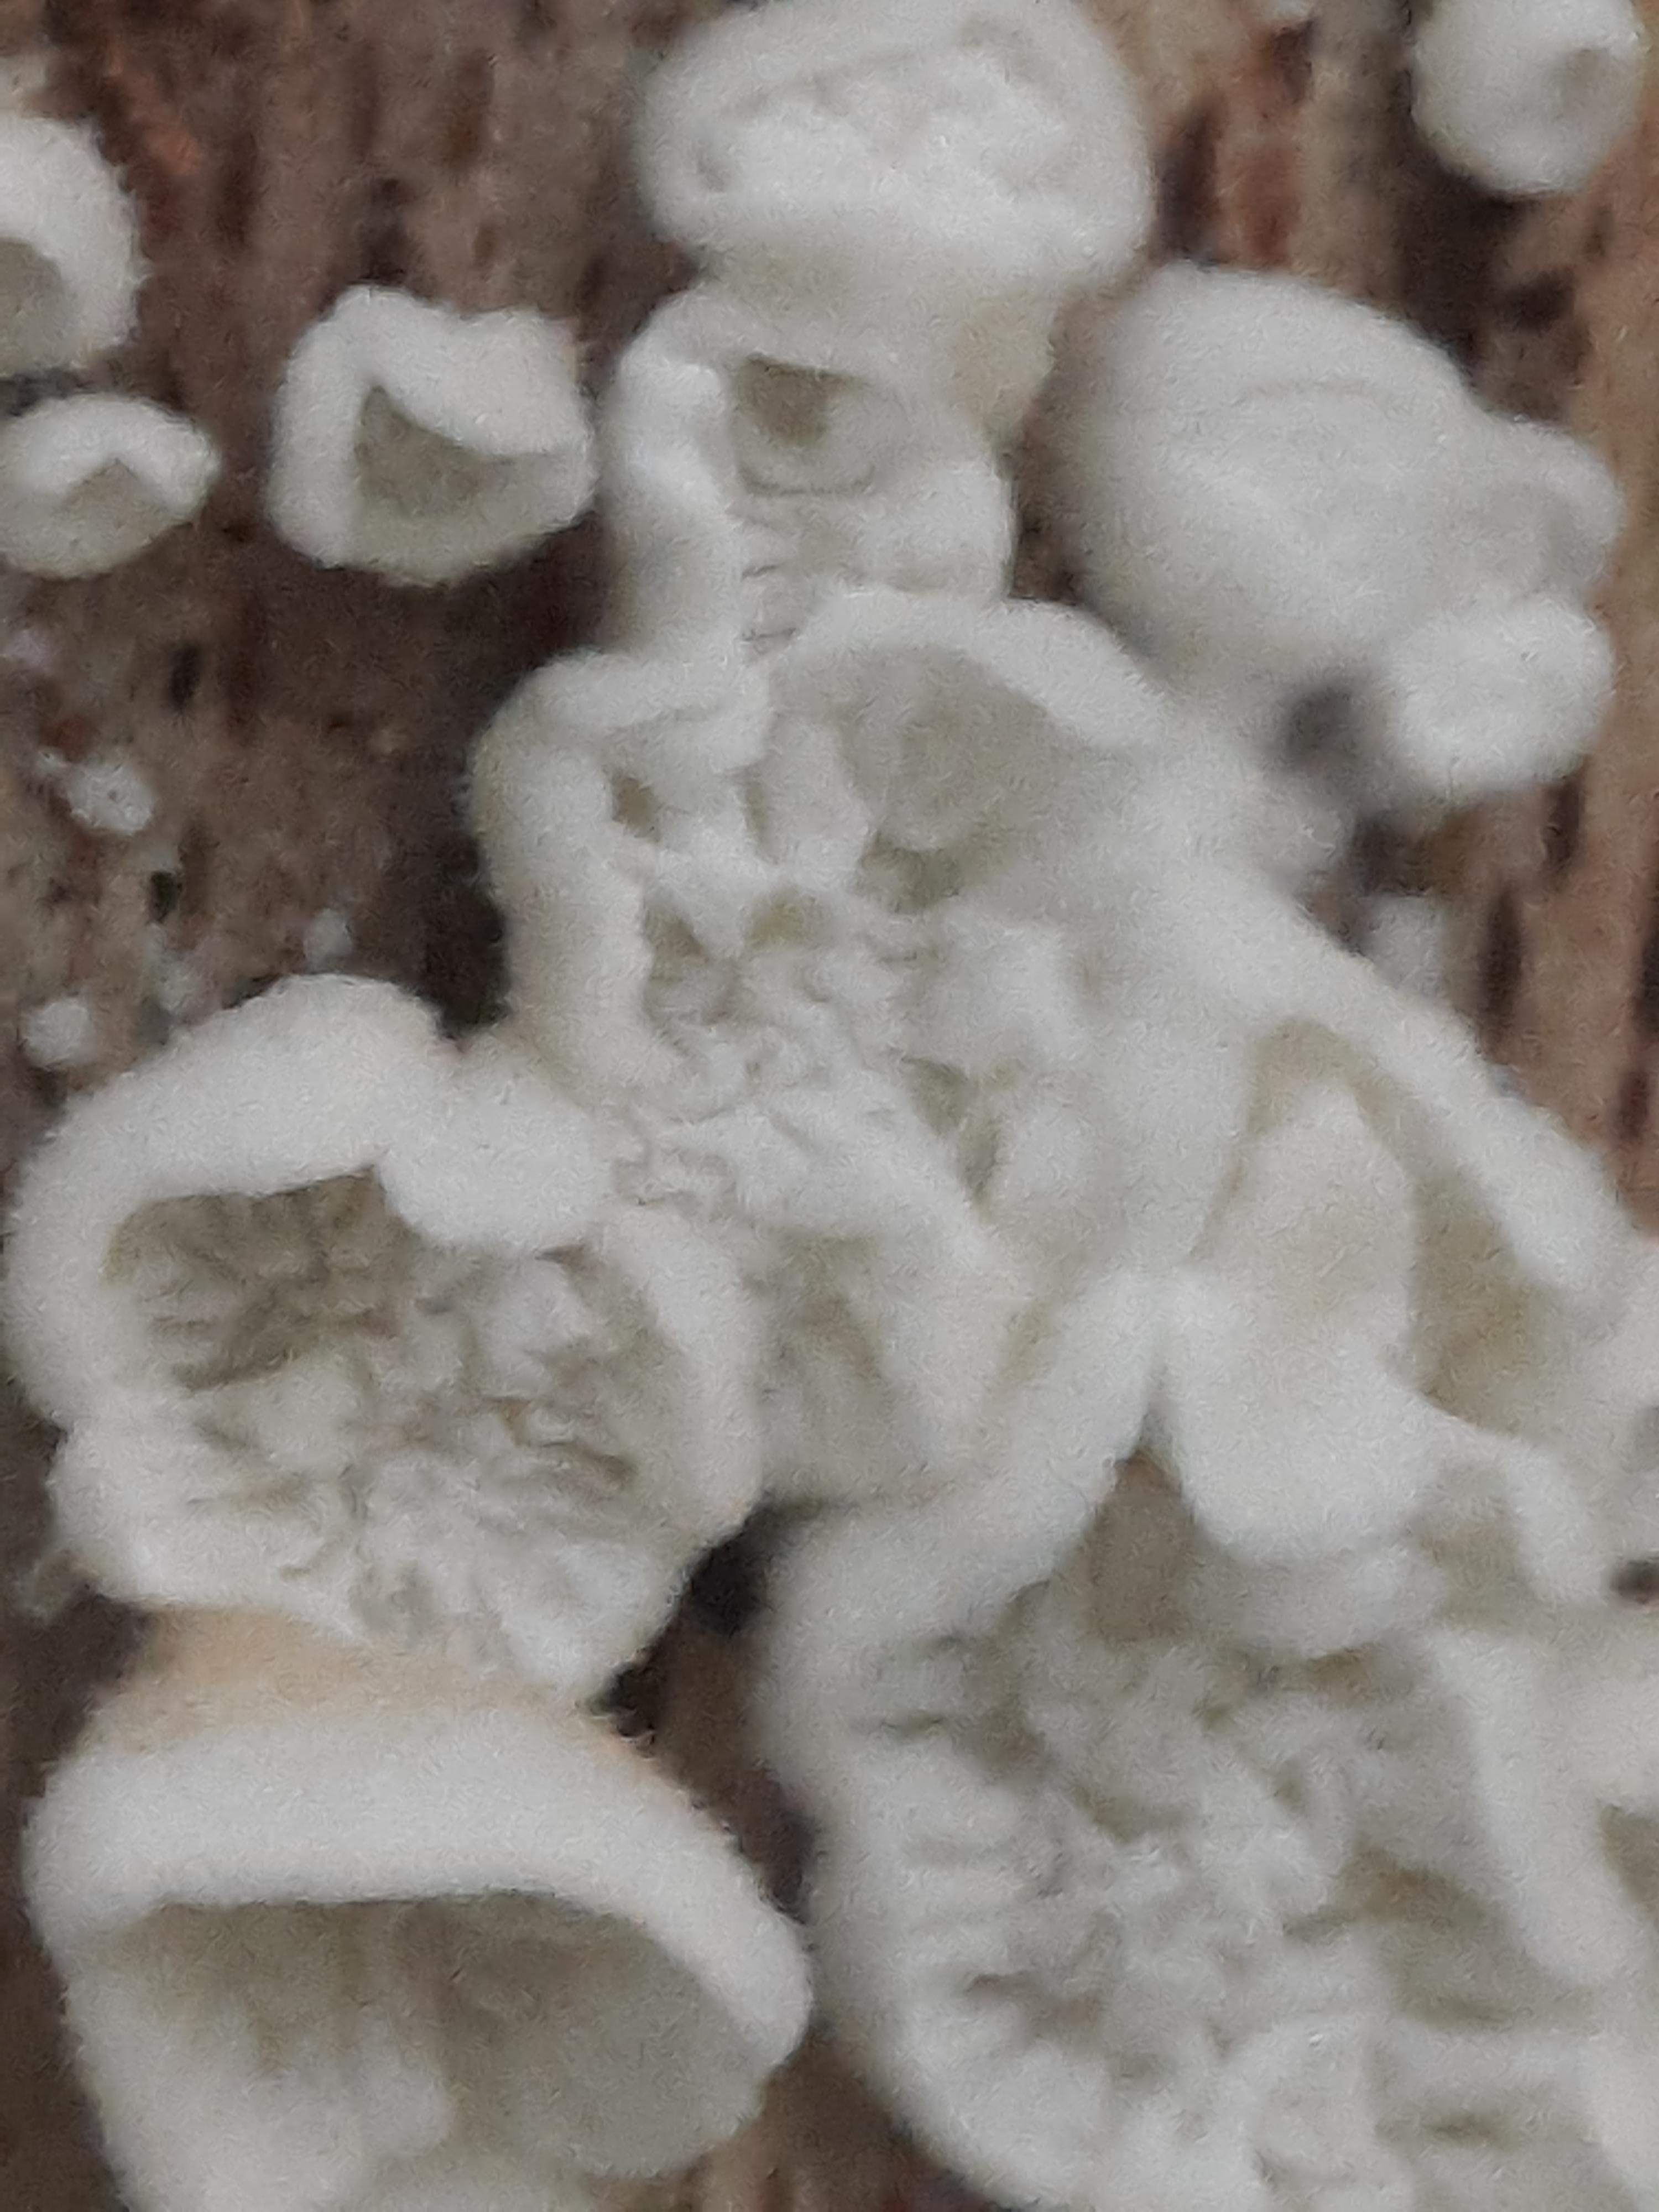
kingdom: Fungi
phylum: Basidiomycota
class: Agaricomycetes
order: Amylocorticiales
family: Amylocorticiaceae
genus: Plicaturopsis
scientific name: Plicaturopsis crispa
